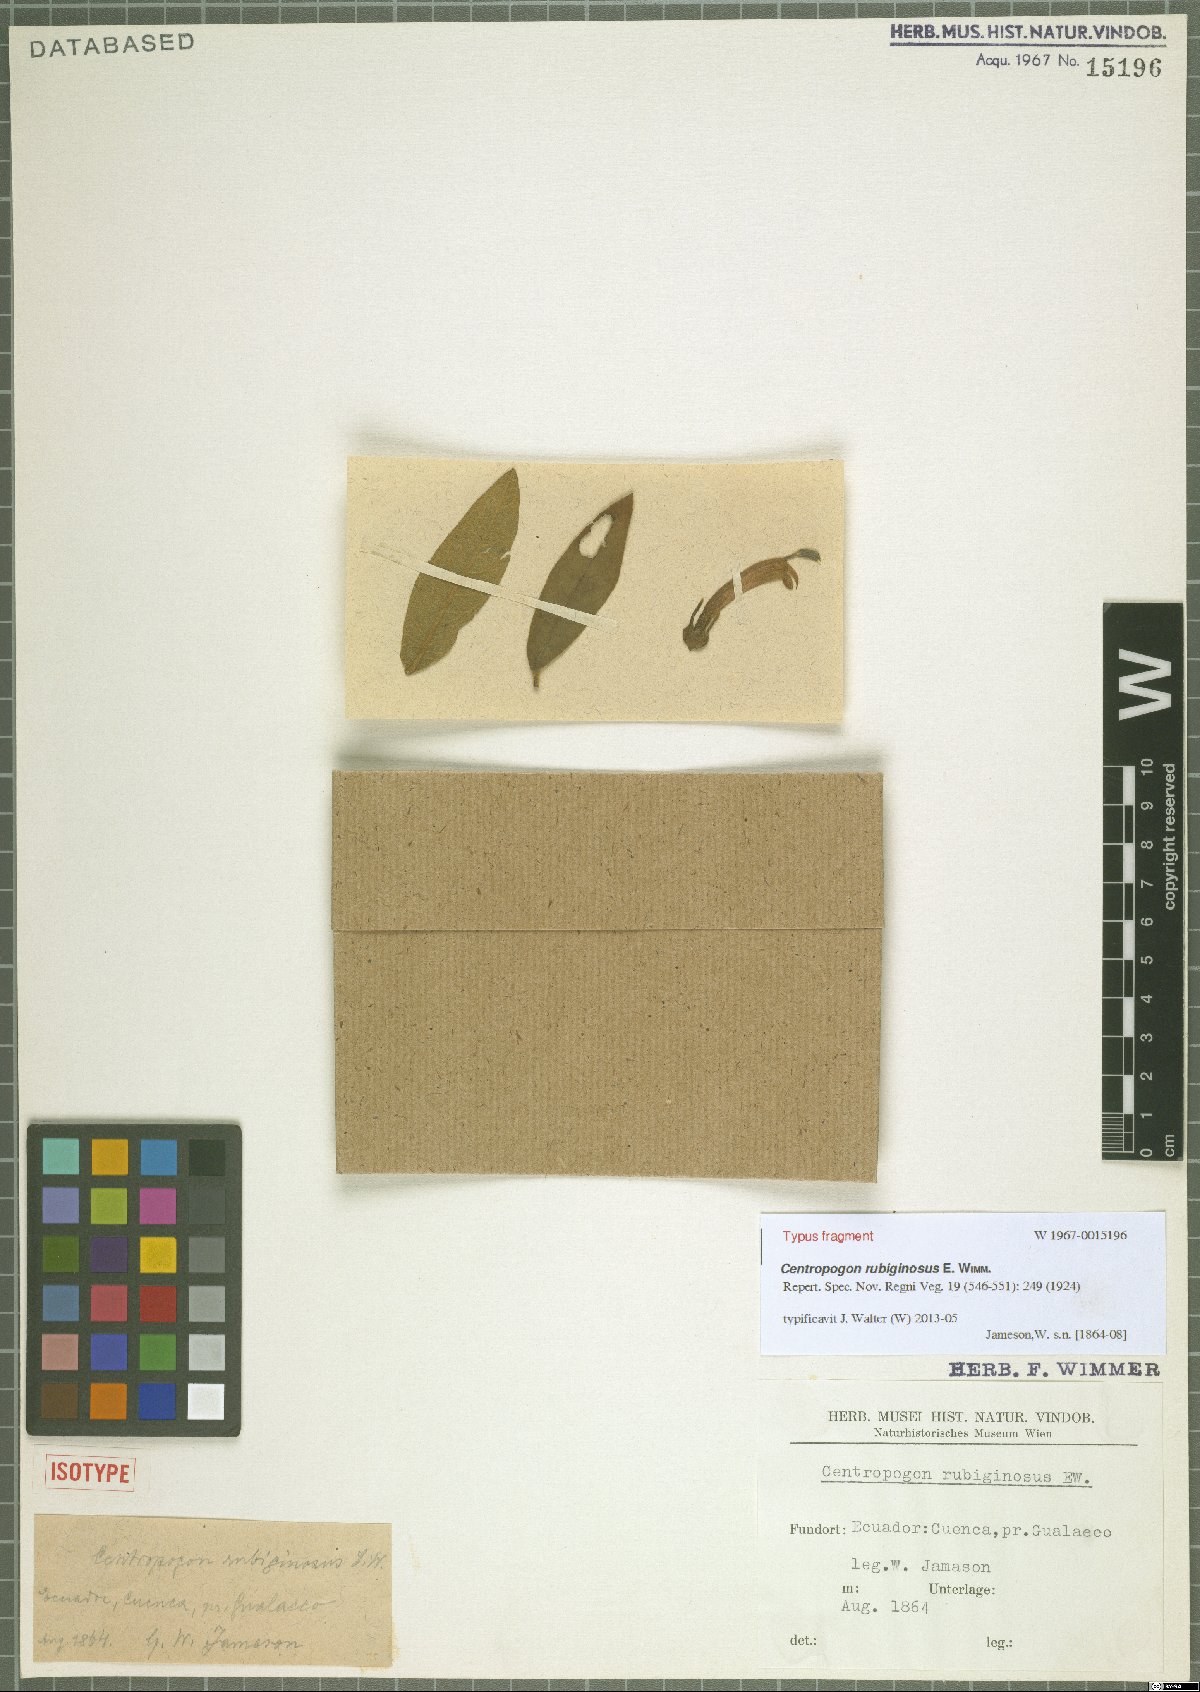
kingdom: Plantae
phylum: Tracheophyta
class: Magnoliopsida
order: Asterales
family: Campanulaceae
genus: Centropogon
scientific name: Centropogon rubiginosus
